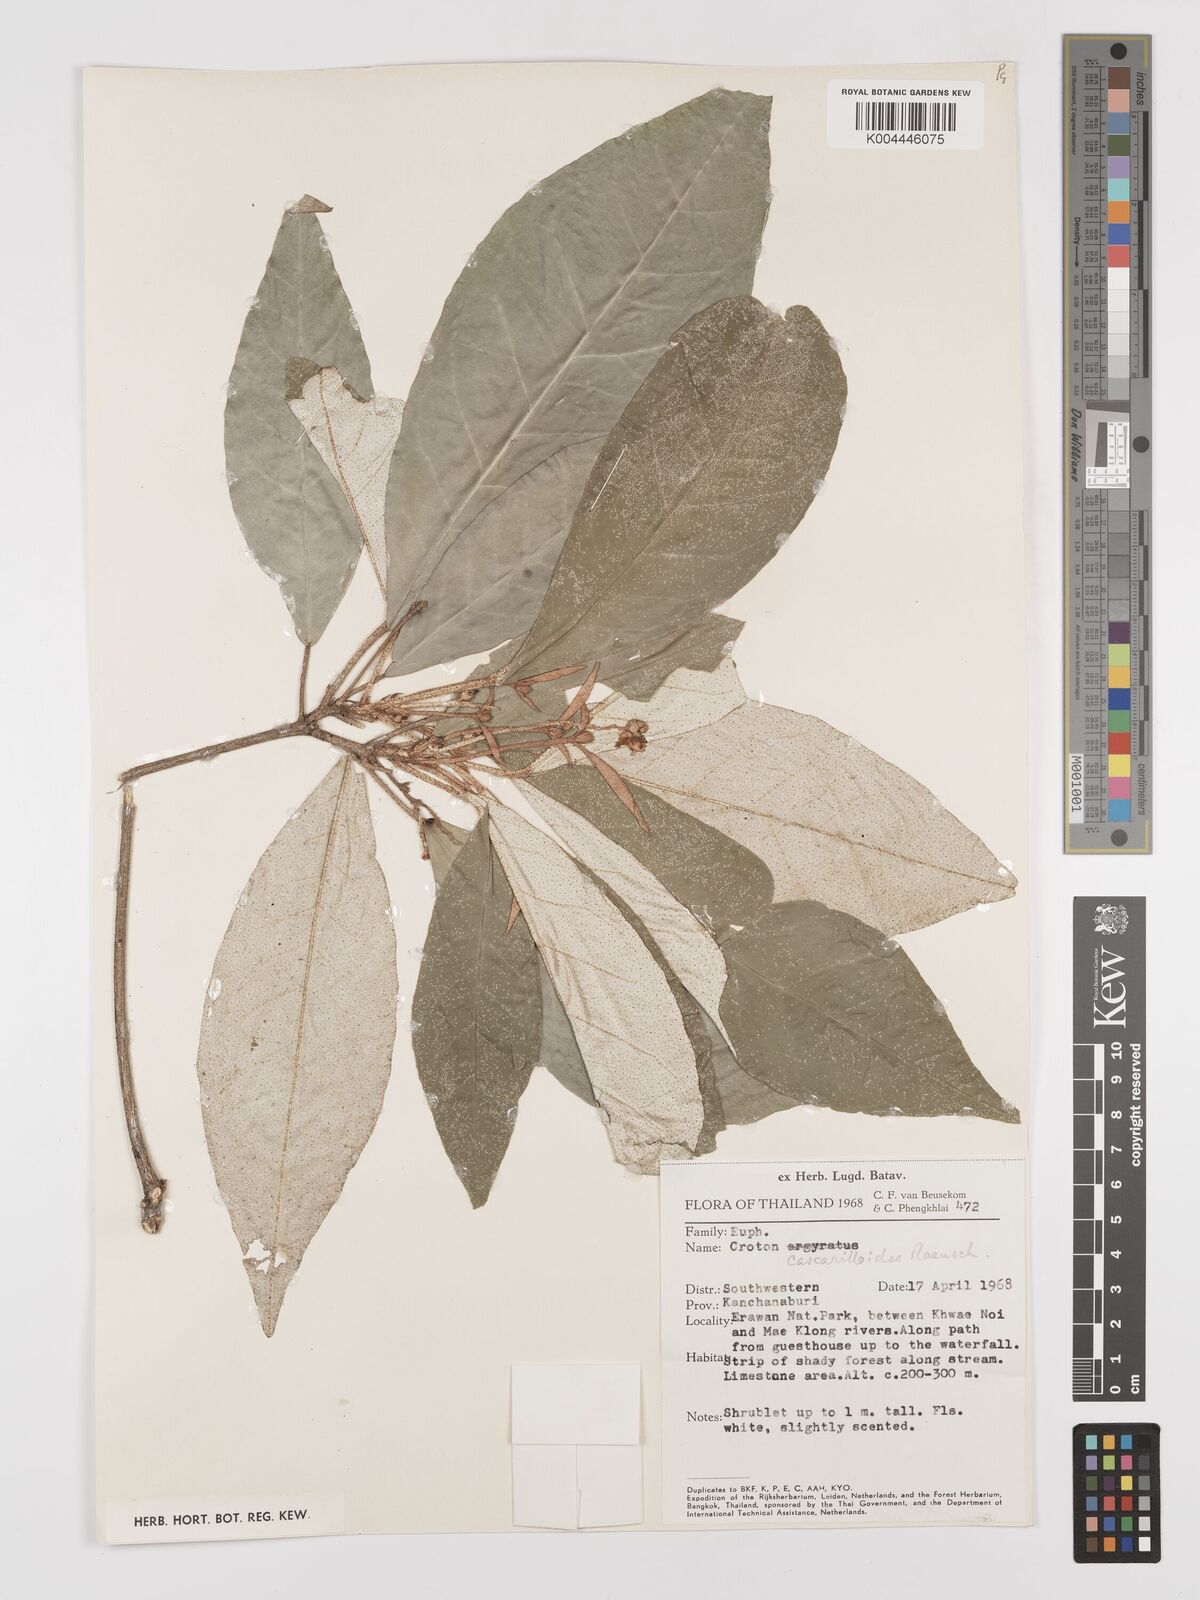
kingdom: Plantae
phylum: Tracheophyta
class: Magnoliopsida
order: Malpighiales
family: Euphorbiaceae
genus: Croton
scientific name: Croton cascarilloides
